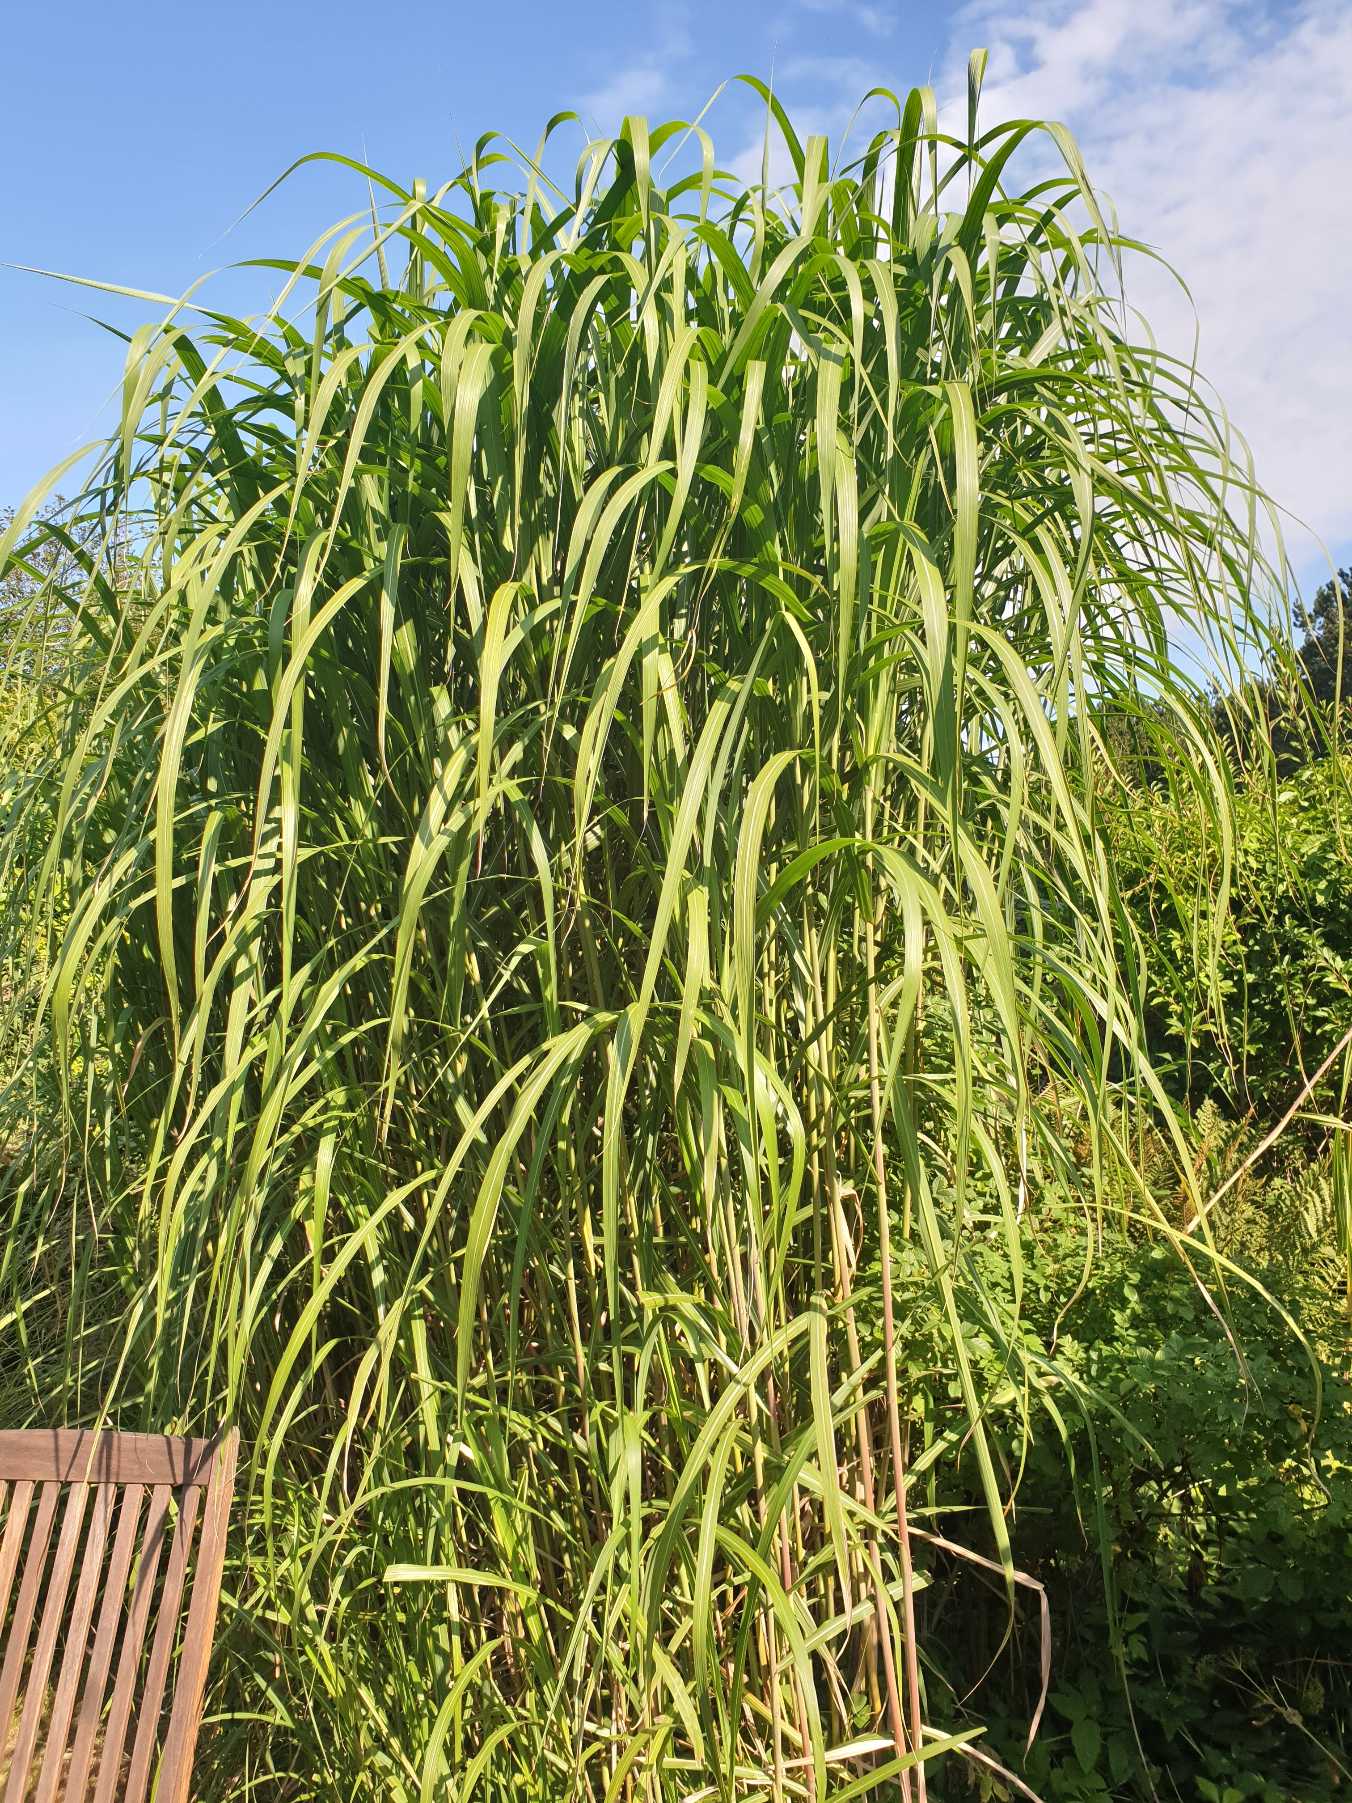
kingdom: Plantae
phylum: Tracheophyta
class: Liliopsida
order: Poales
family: Poaceae
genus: Miscanthus
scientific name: Miscanthus
